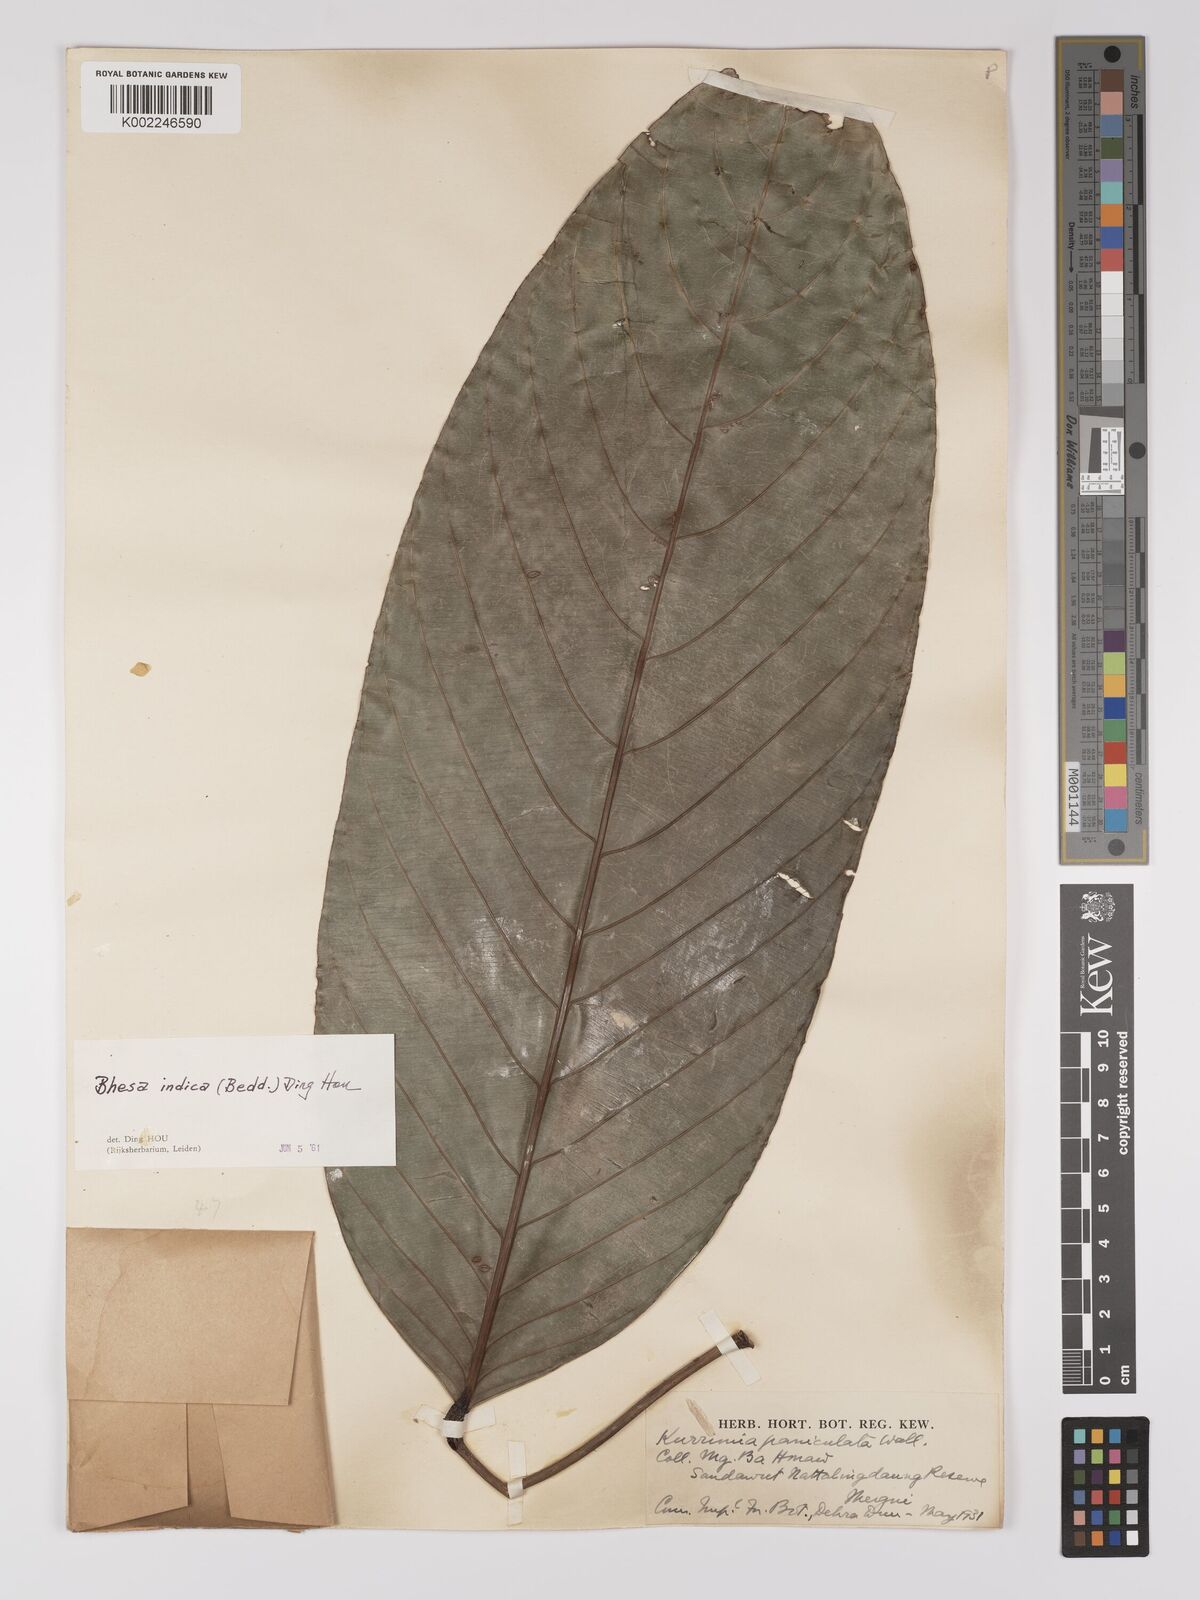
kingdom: Plantae
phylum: Tracheophyta
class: Magnoliopsida
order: Malpighiales
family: Centroplacaceae
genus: Bhesa
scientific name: Bhesa indica
